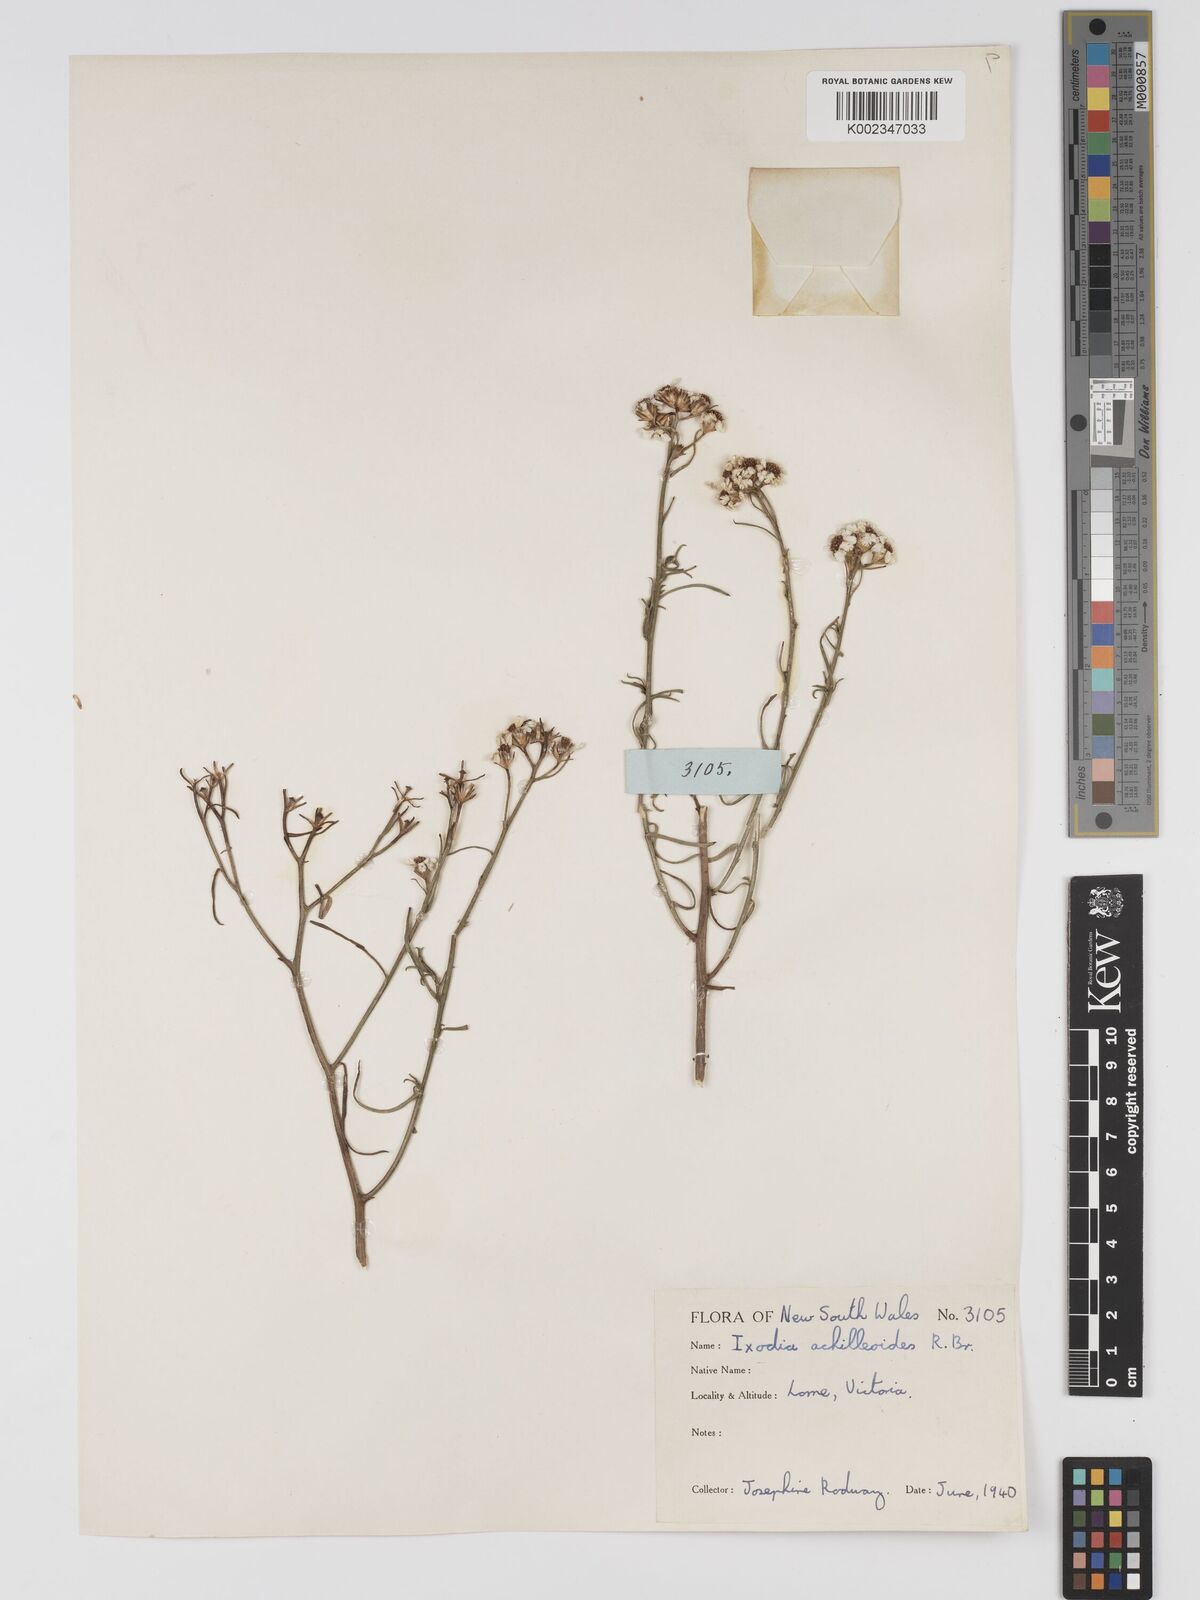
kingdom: Plantae
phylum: Tracheophyta
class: Magnoliopsida
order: Asterales
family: Asteraceae
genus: Ixodia
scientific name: Ixodia achilleoides
